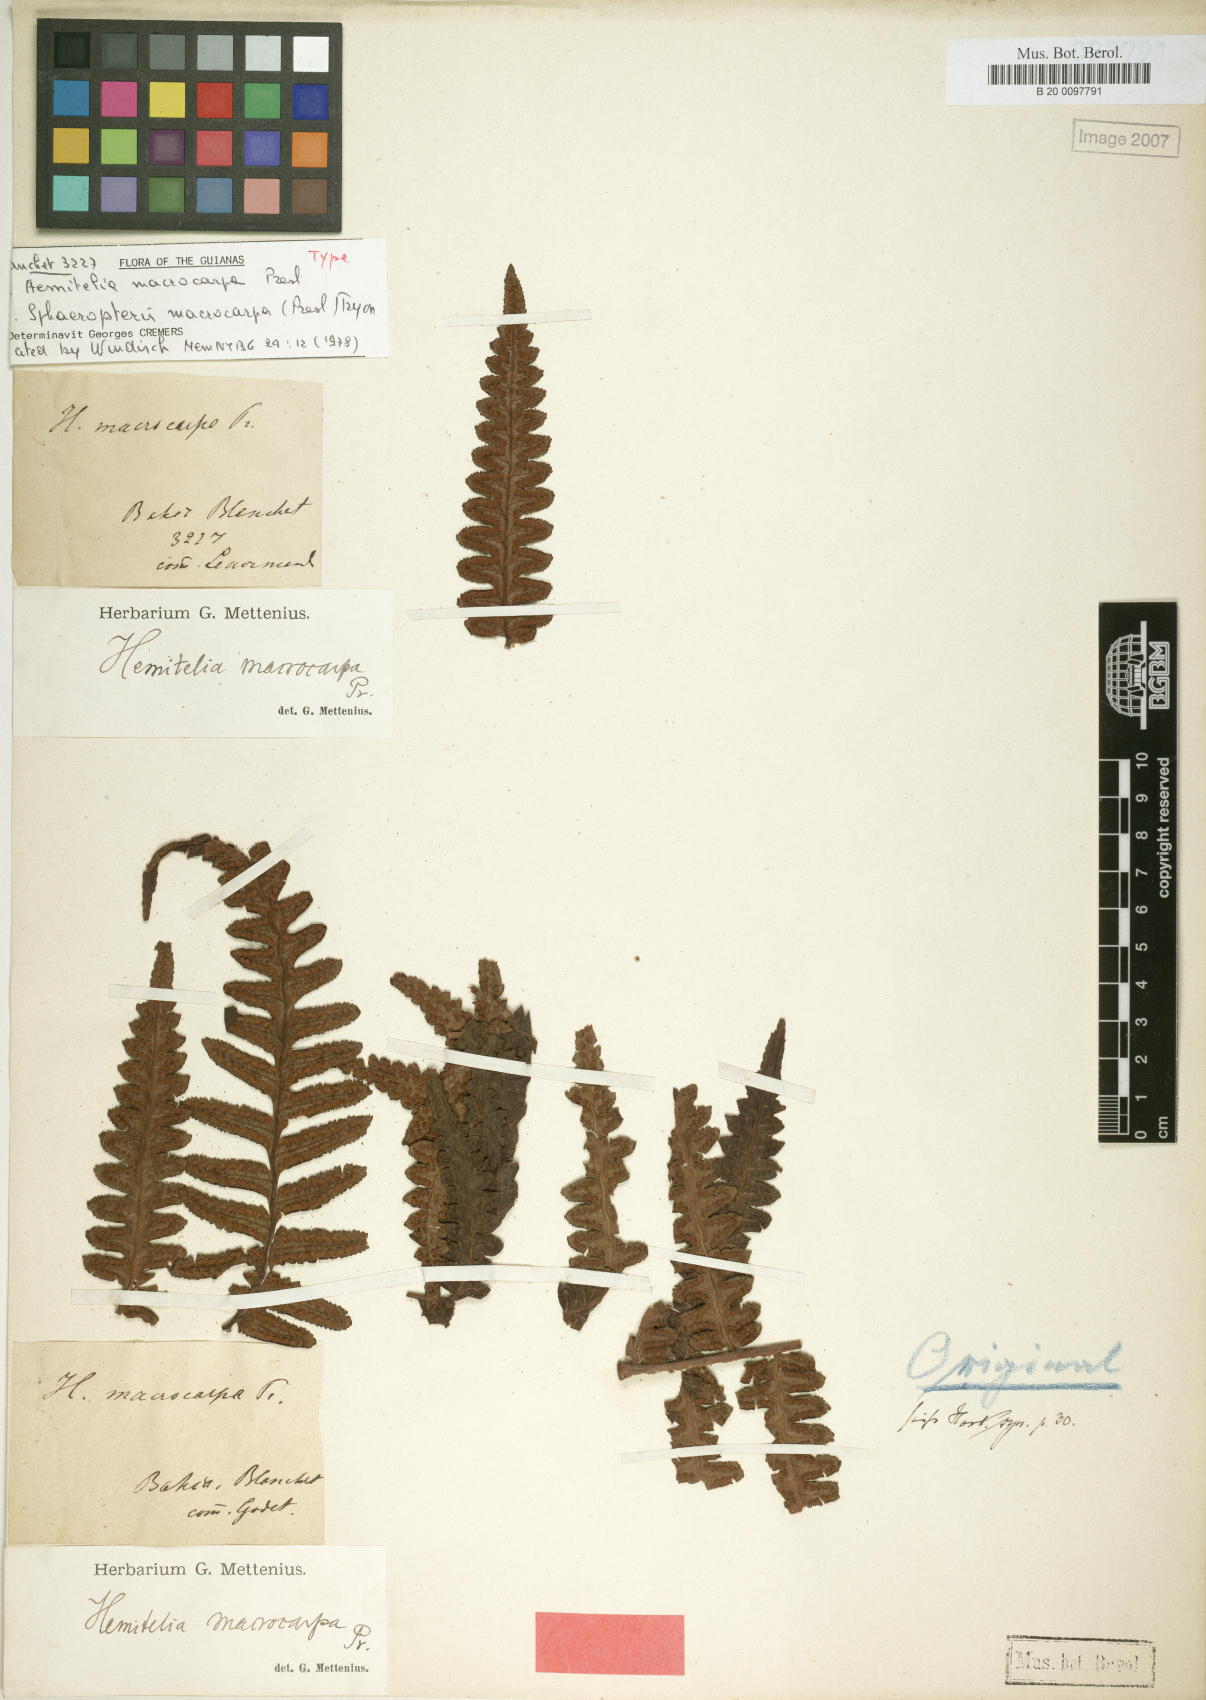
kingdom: Plantae
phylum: Tracheophyta
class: Polypodiopsida
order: Cyatheales
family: Cyatheaceae
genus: Cyathea
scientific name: Cyathea macrocarpa
